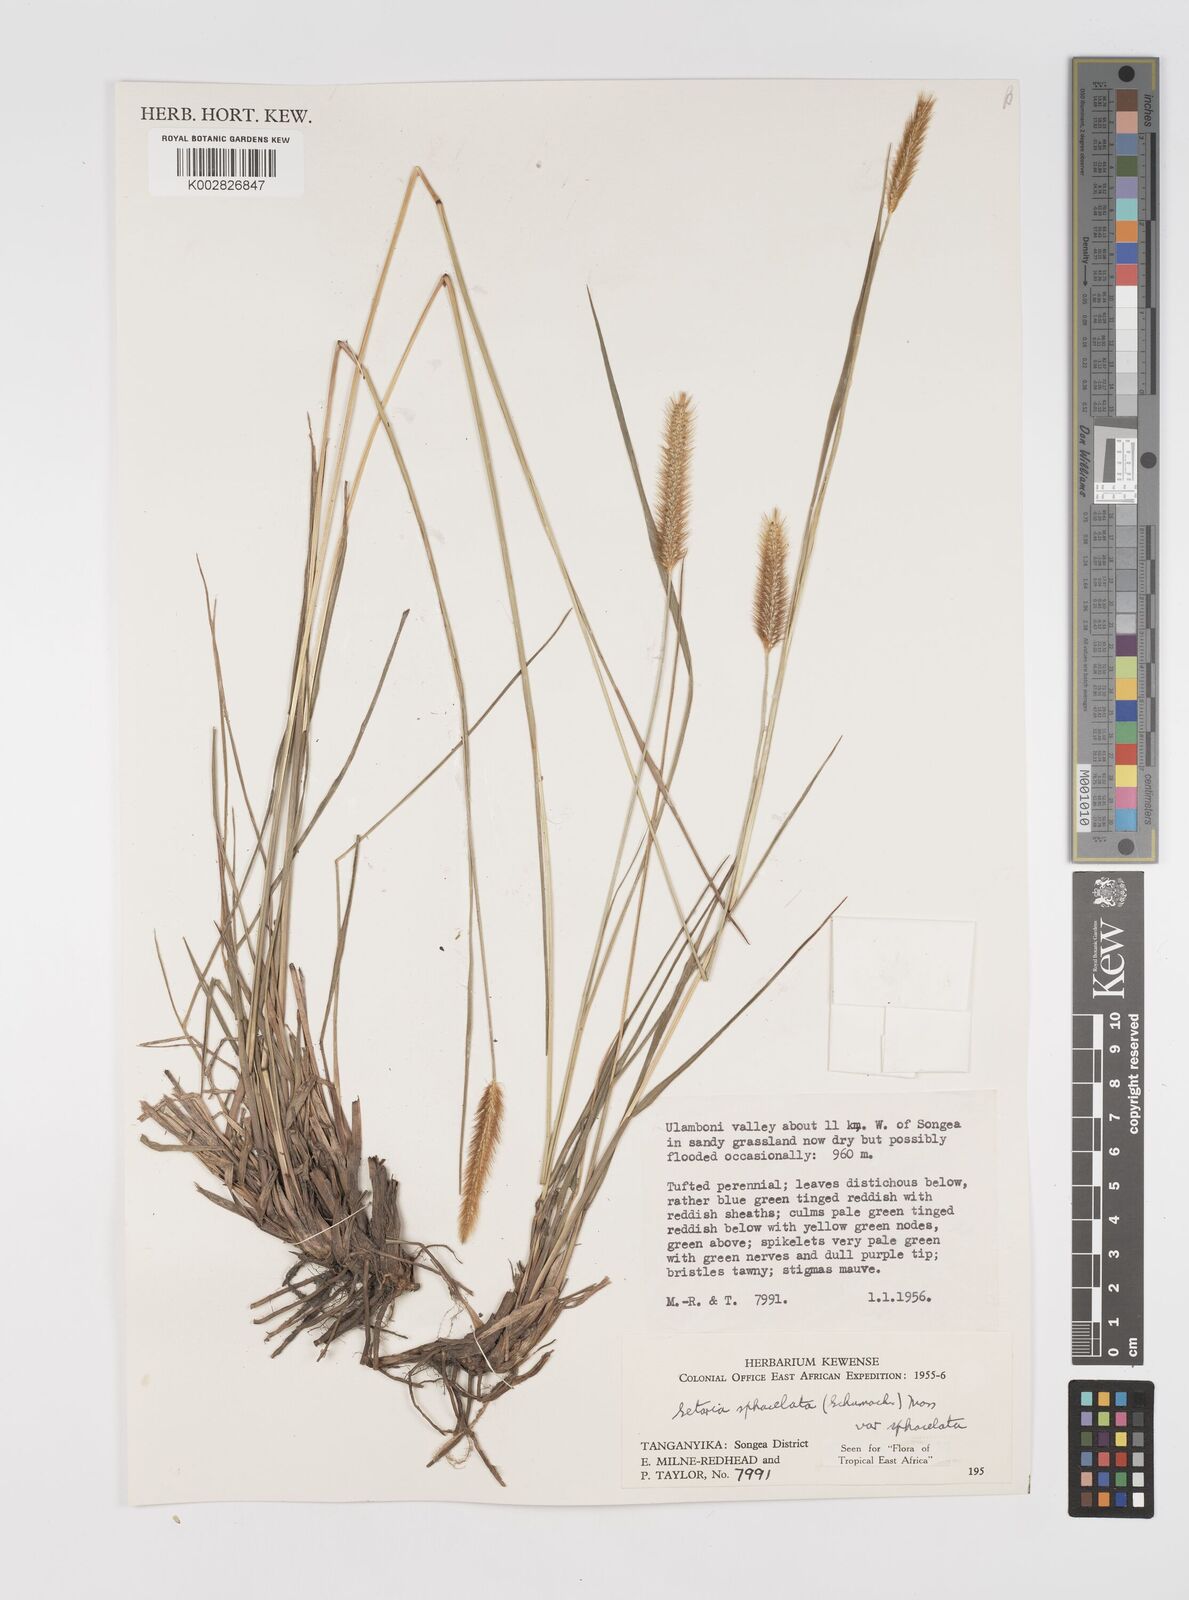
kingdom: Plantae
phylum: Tracheophyta
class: Liliopsida
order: Poales
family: Poaceae
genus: Setaria
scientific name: Setaria sphacelata
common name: African bristlegrass
